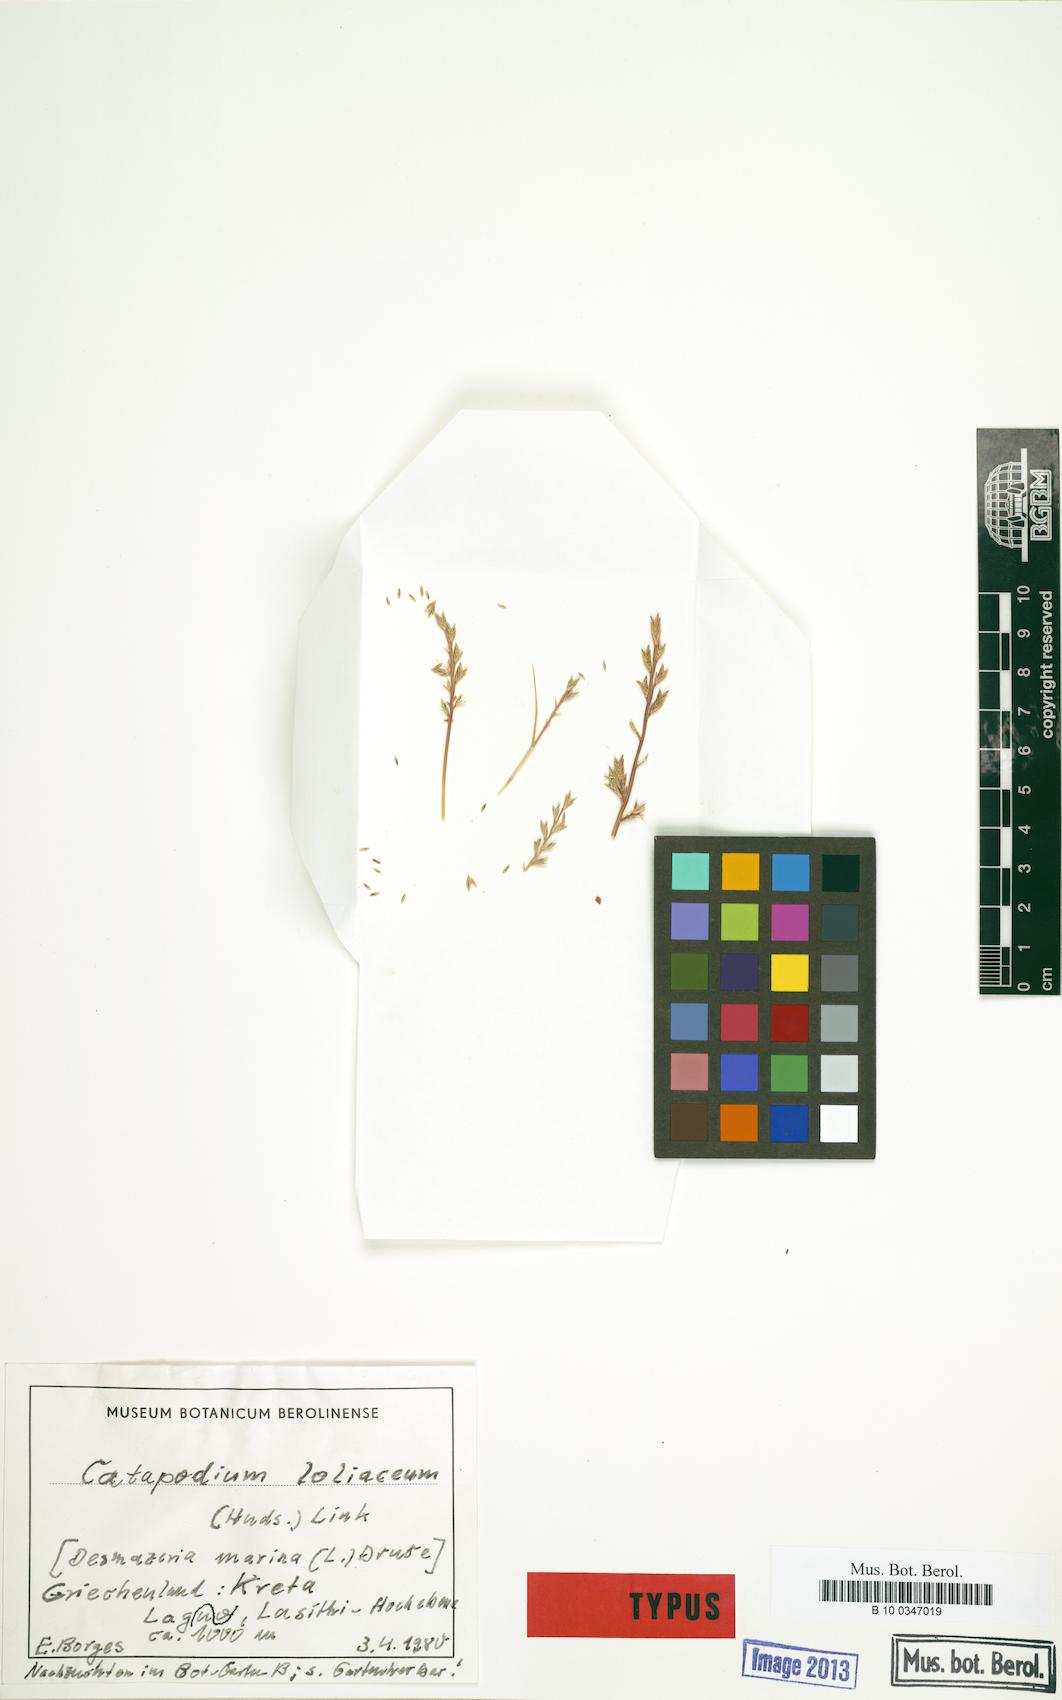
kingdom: Plantae
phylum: Tracheophyta
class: Liliopsida
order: Poales
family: Poaceae
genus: Catapodium
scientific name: Catapodium borgesii
